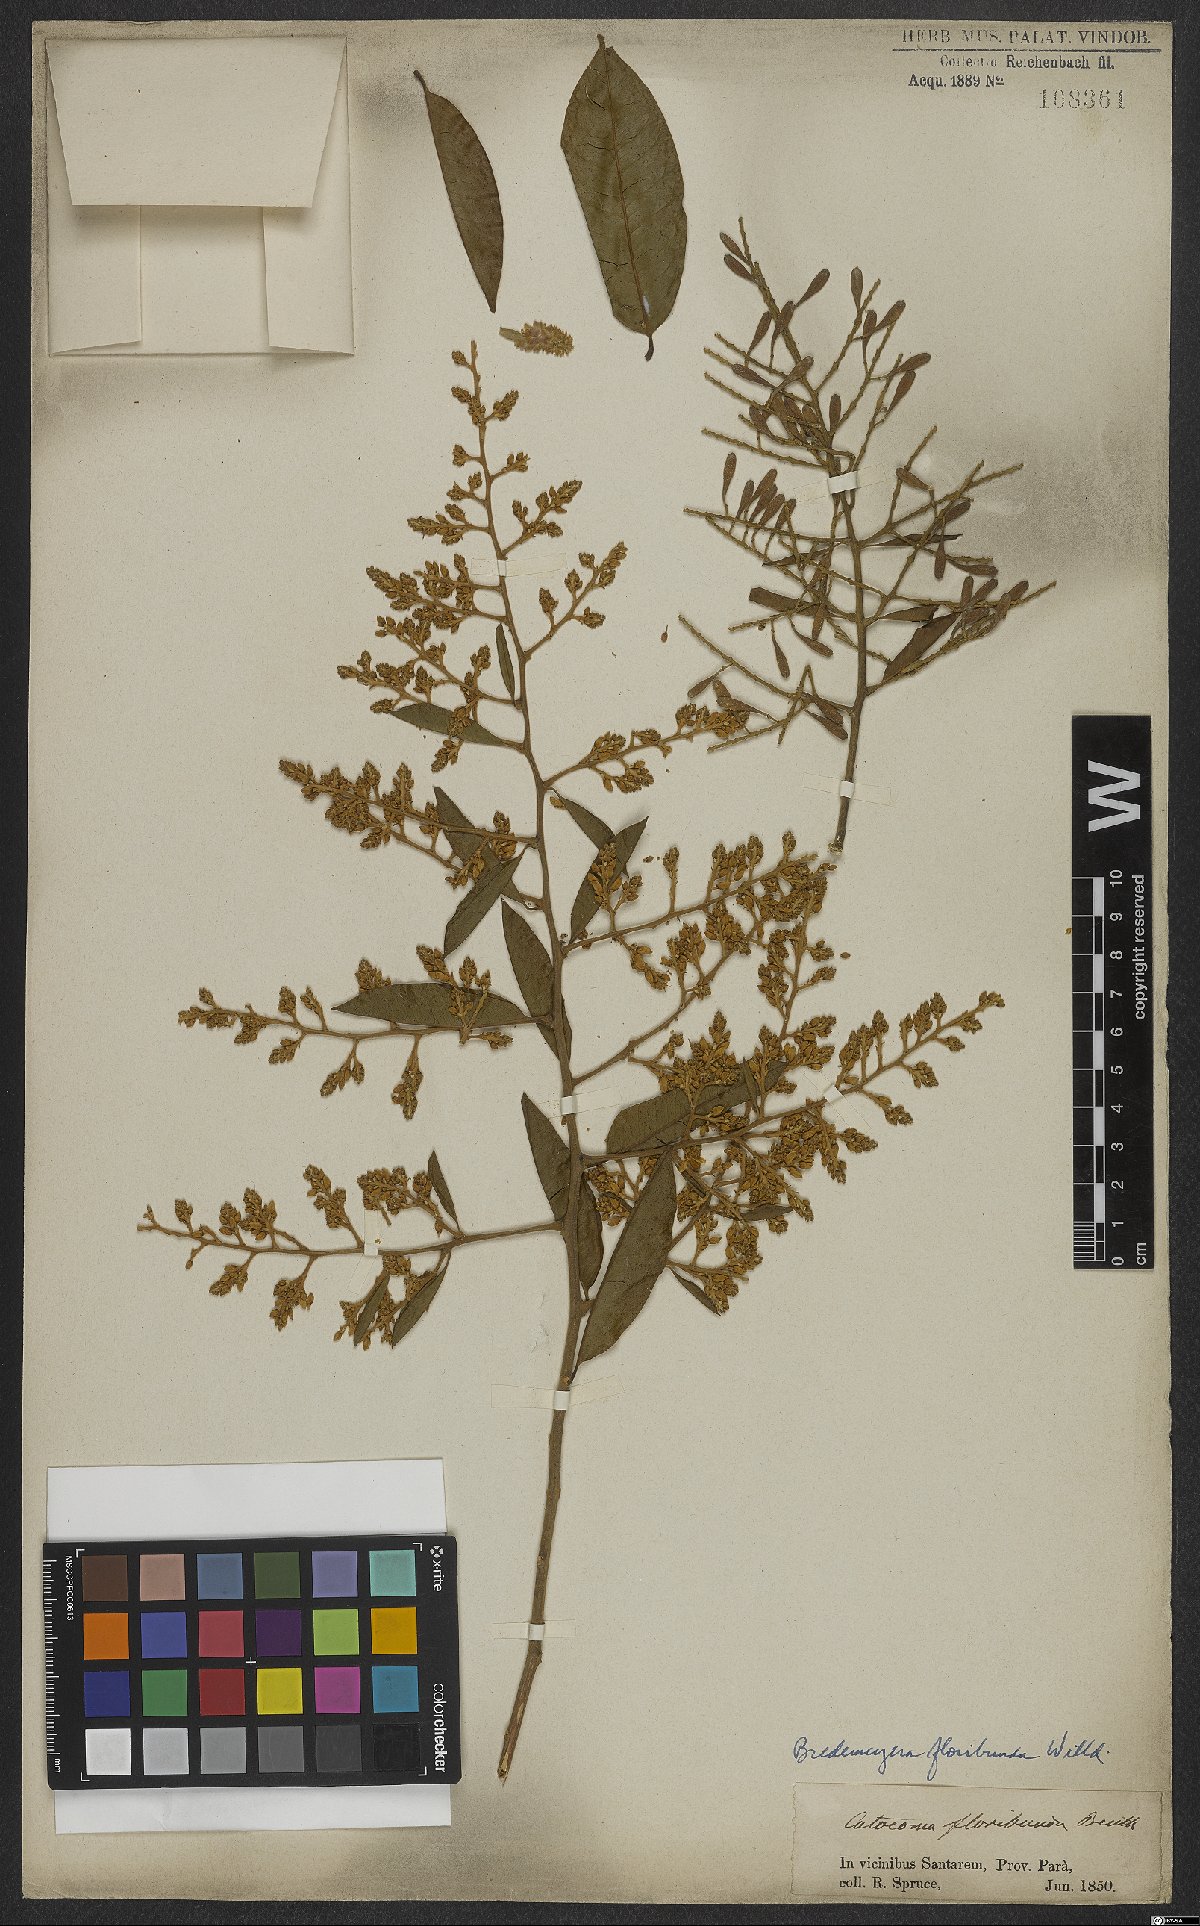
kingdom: Plantae
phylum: Tracheophyta
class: Magnoliopsida
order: Fabales
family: Polygalaceae
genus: Bredemeyera
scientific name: Bredemeyera floribunda
